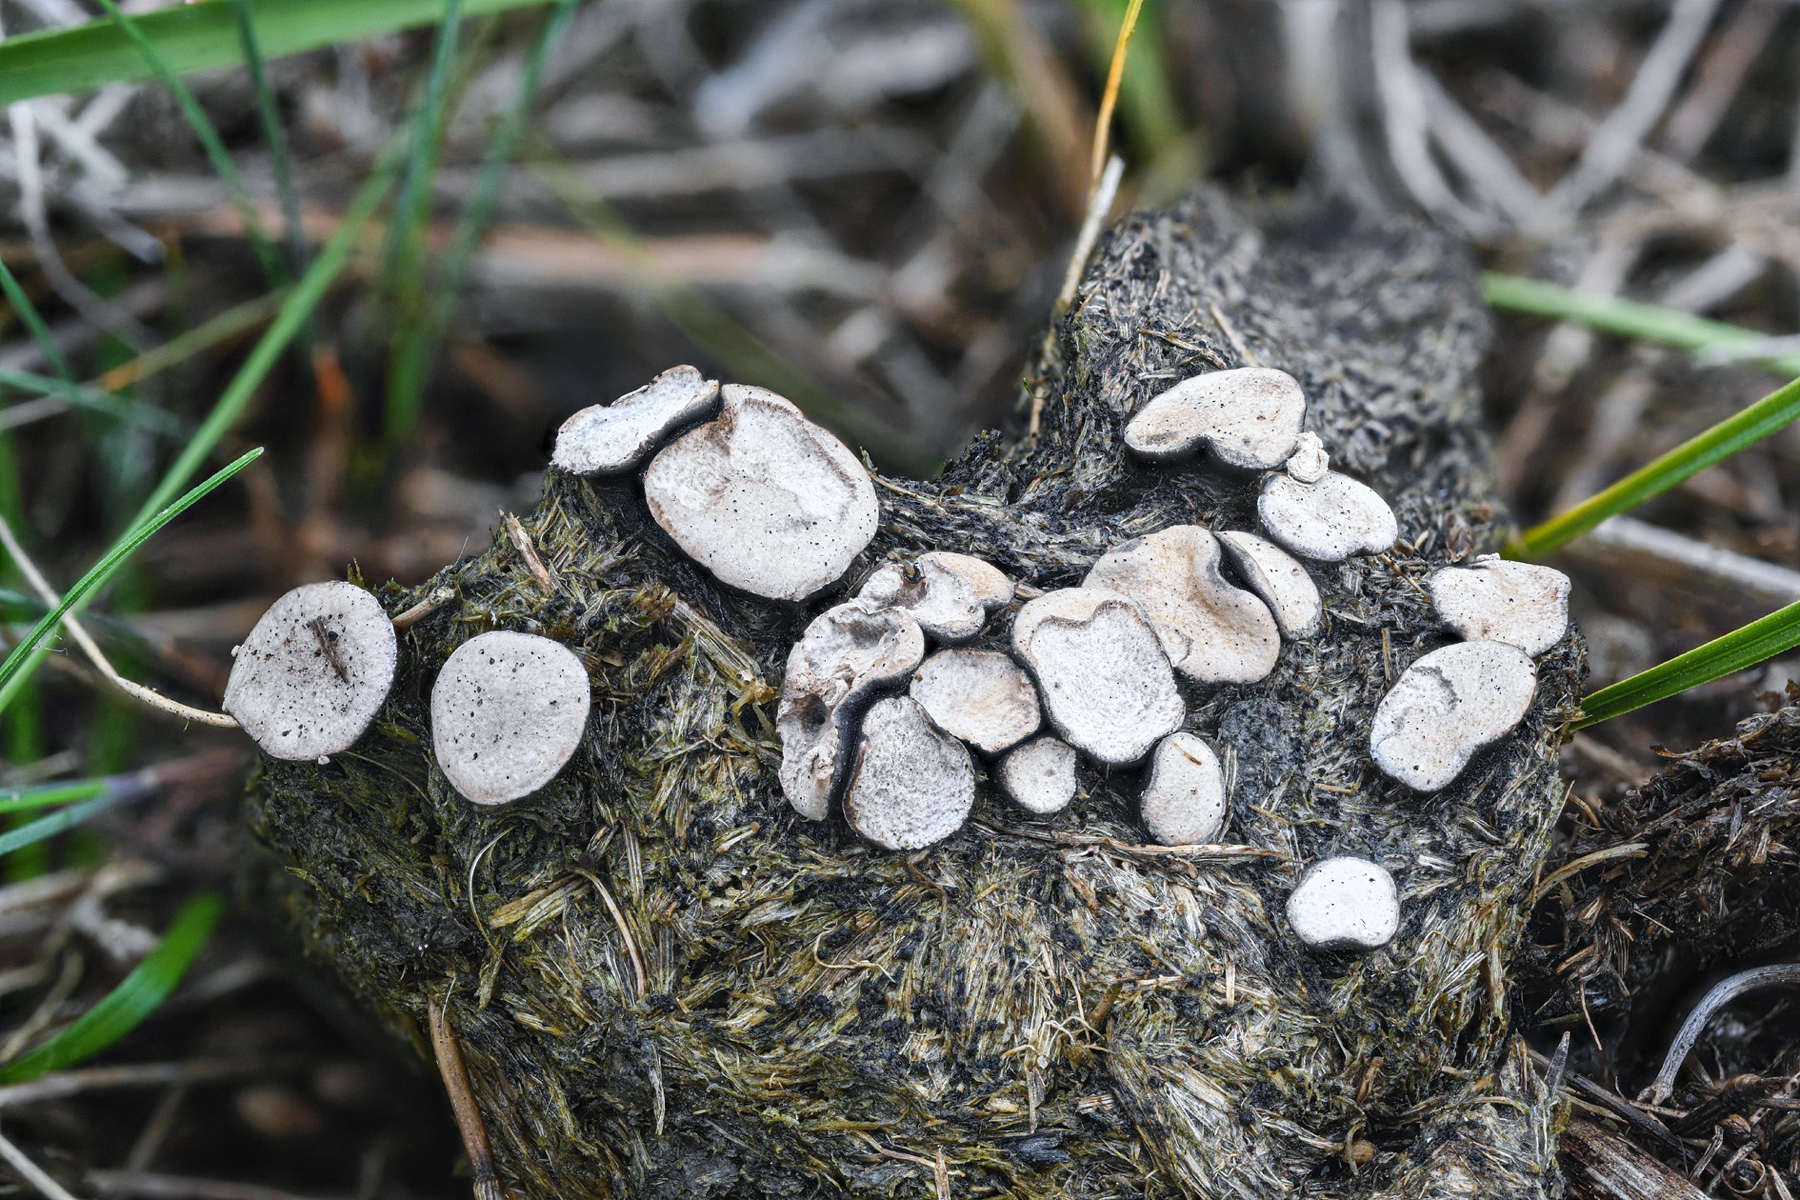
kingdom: Fungi
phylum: Ascomycota
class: Sordariomycetes
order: Xylariales
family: Xylariaceae
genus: Poronia
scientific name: Poronia punctata
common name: stor priksvamp
